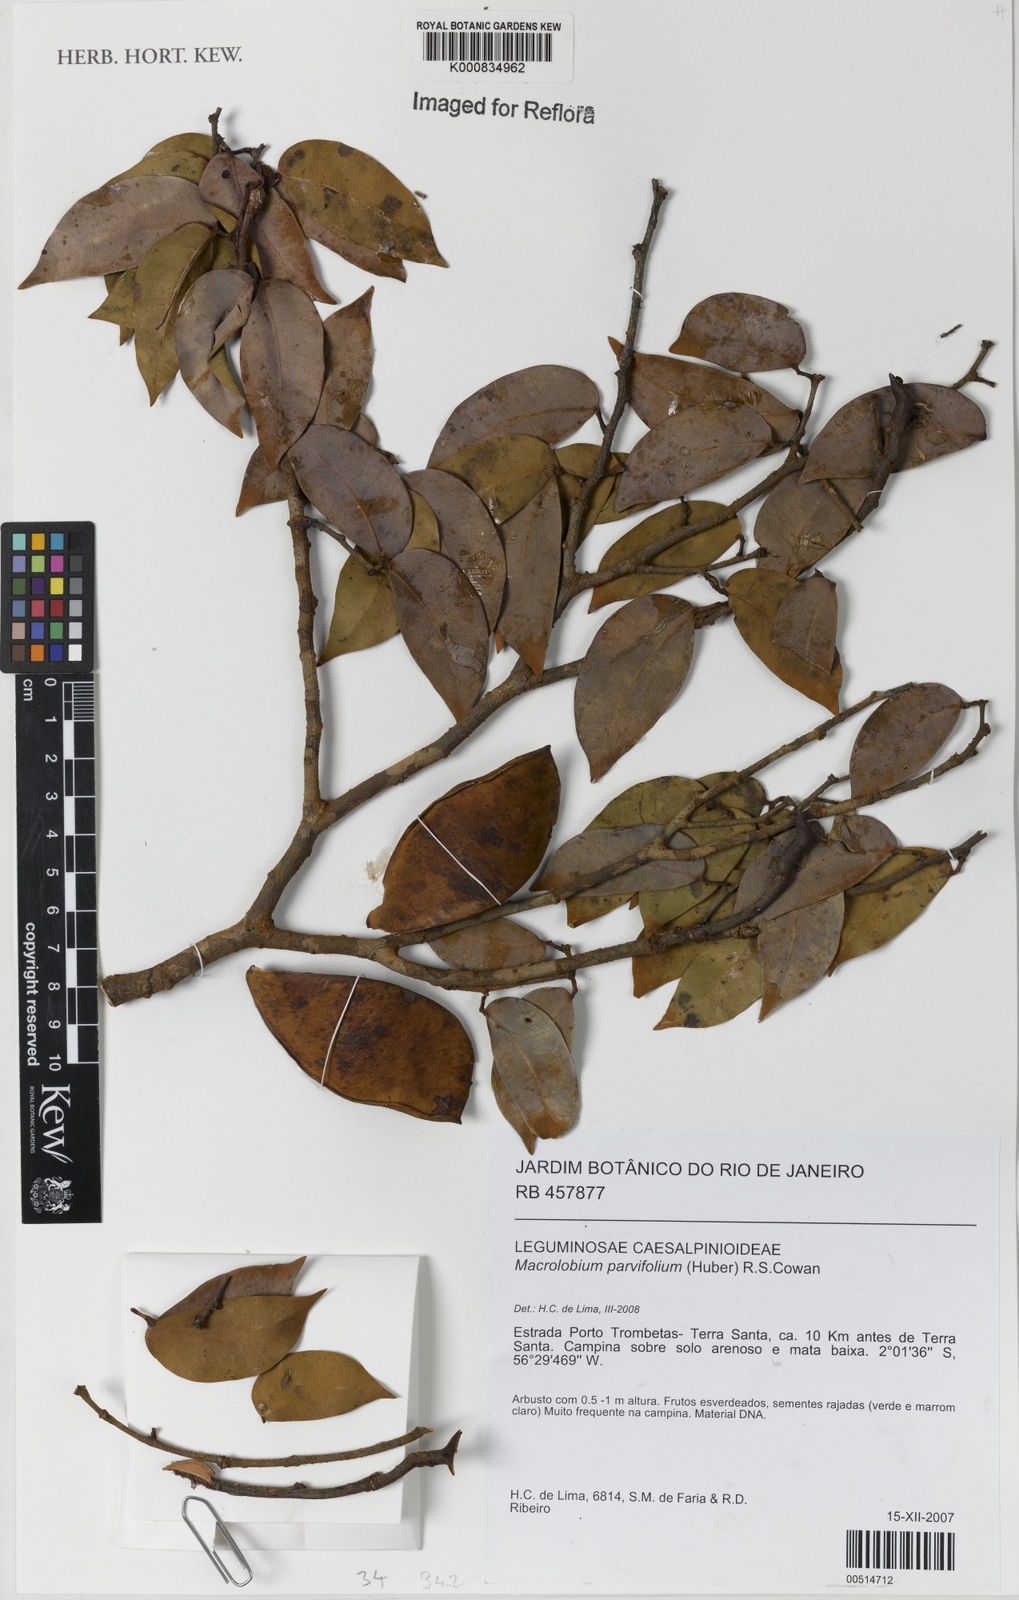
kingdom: Plantae
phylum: Tracheophyta
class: Magnoliopsida
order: Fabales
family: Fabaceae
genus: Macrolobium
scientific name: Macrolobium parvifolium
